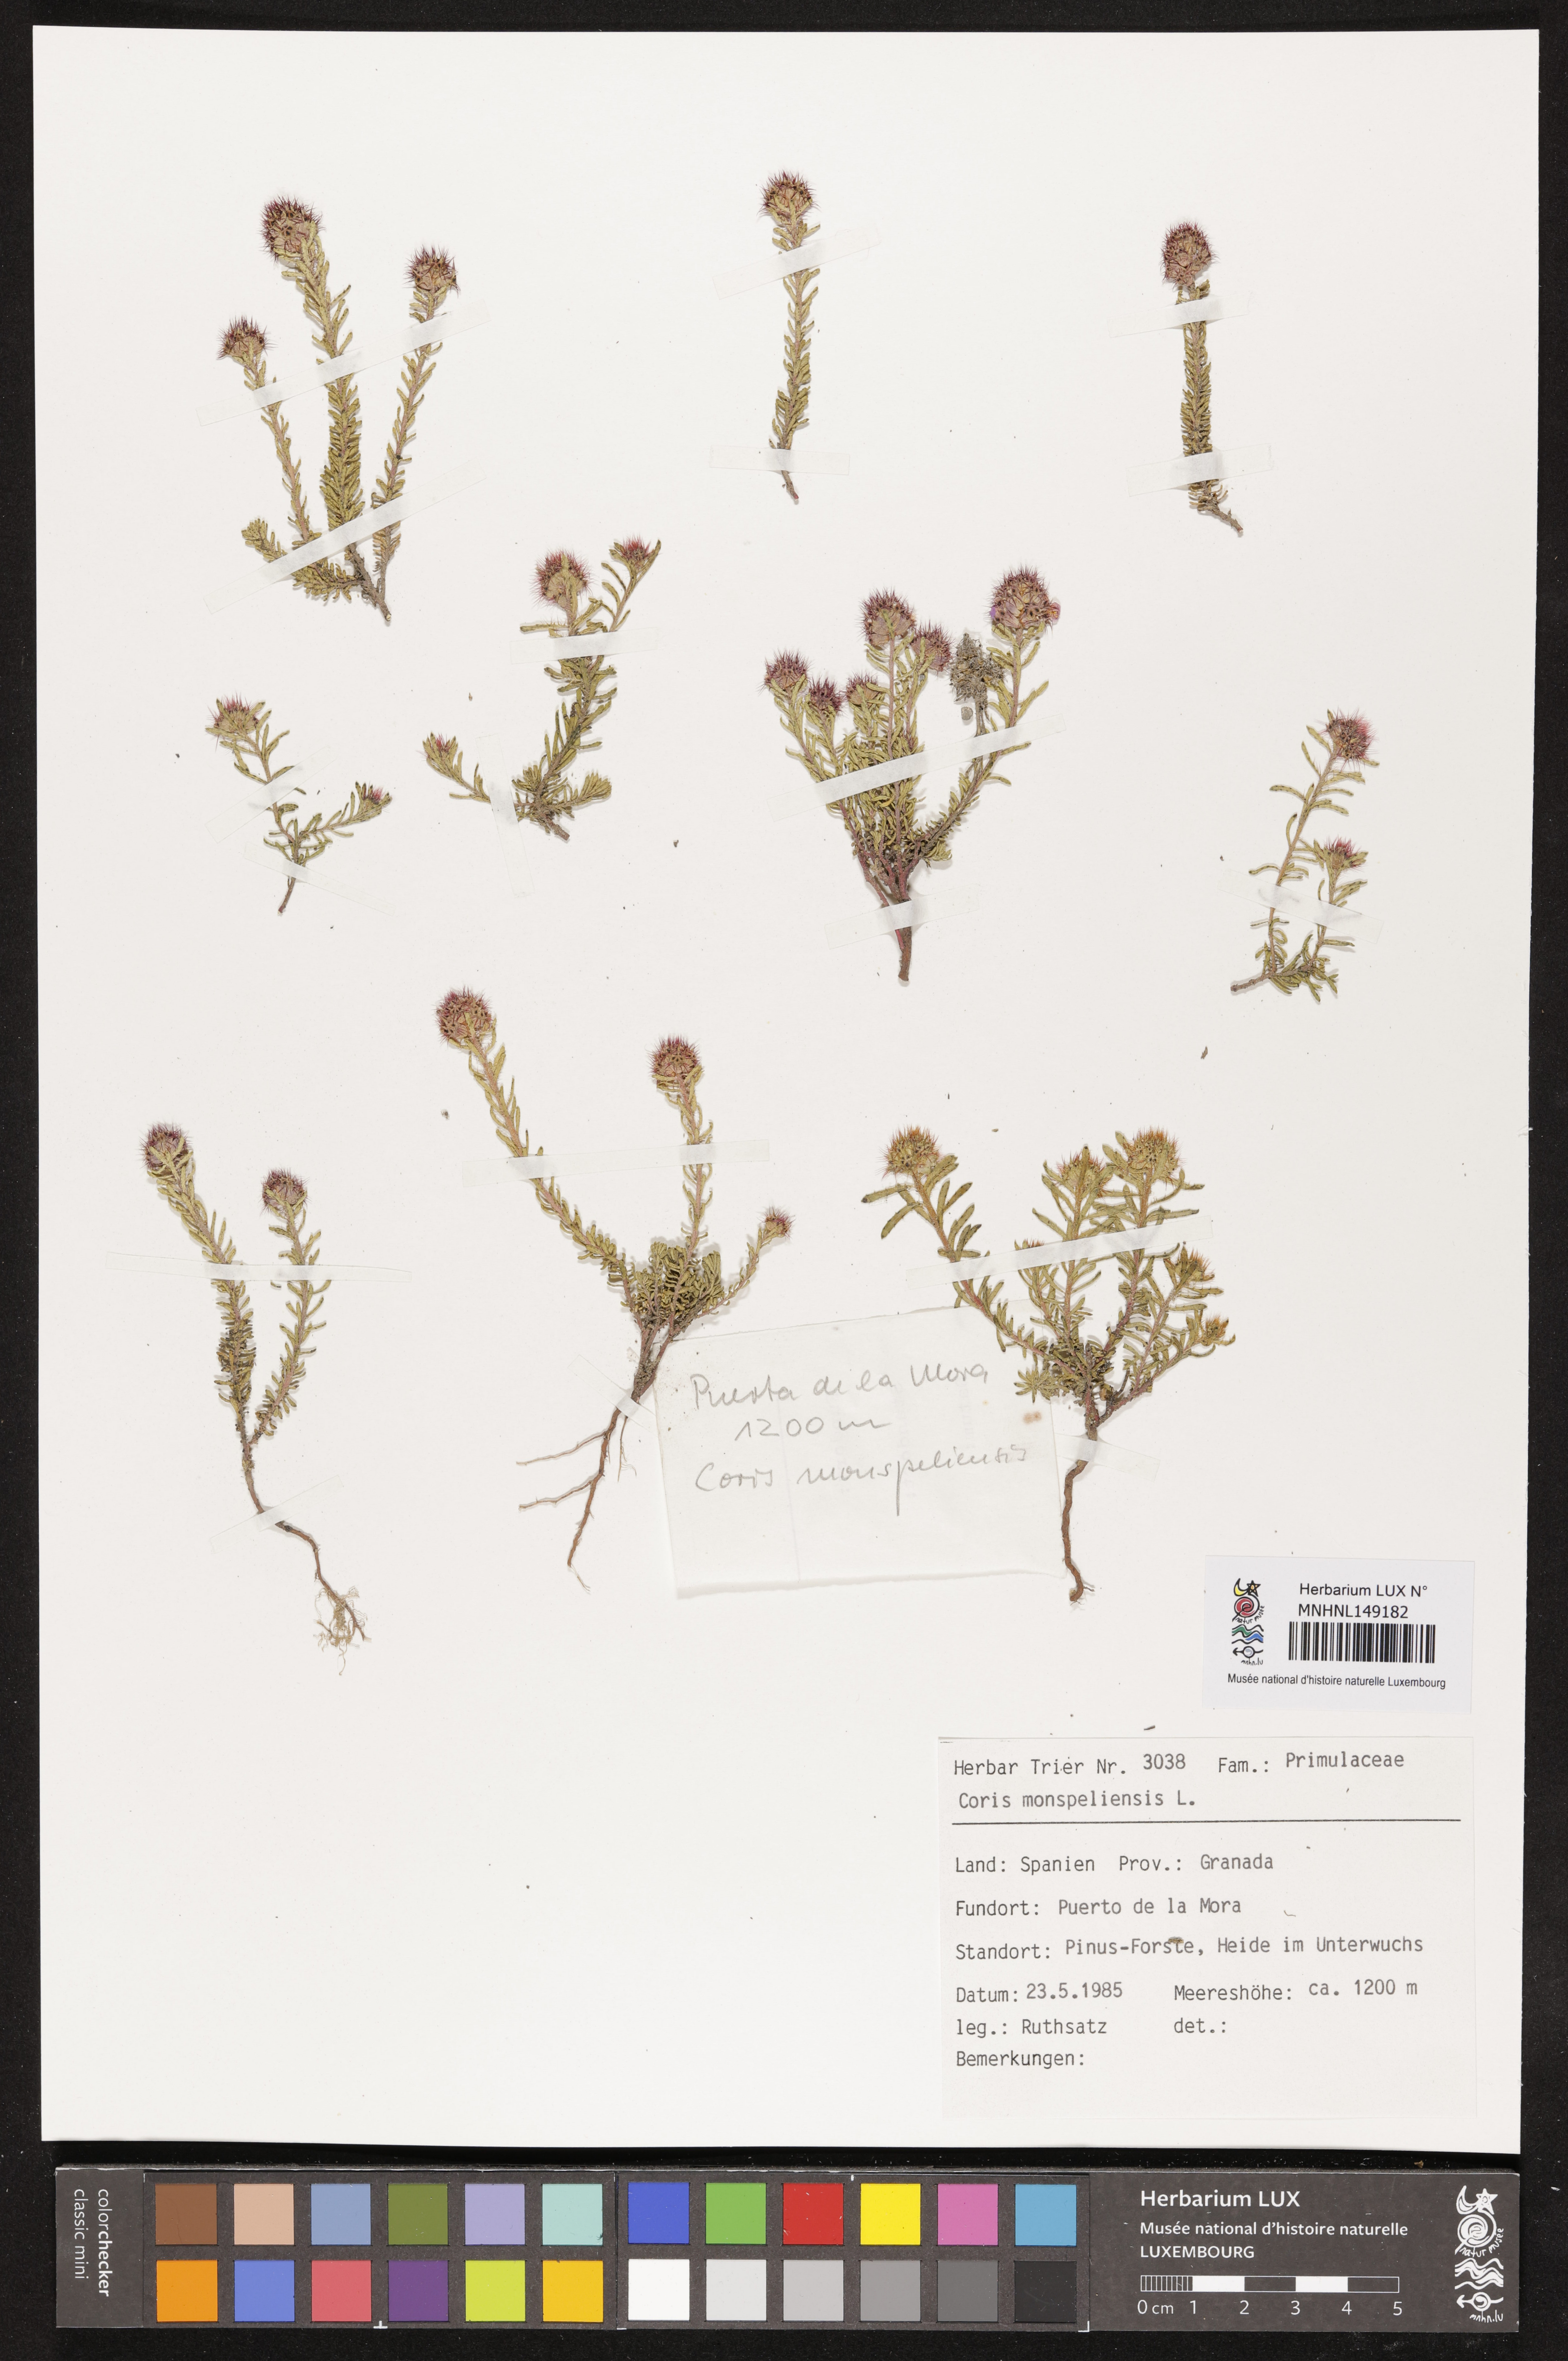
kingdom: Plantae
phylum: Tracheophyta
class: Magnoliopsida
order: Ericales
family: Primulaceae
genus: Coris
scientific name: Coris monspeliensis
